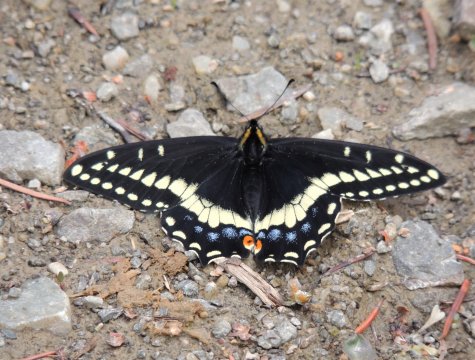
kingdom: Animalia
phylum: Arthropoda
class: Insecta
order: Lepidoptera
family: Papilionidae
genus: Papilio
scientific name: Papilio indra
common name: Indra Swallowtail
